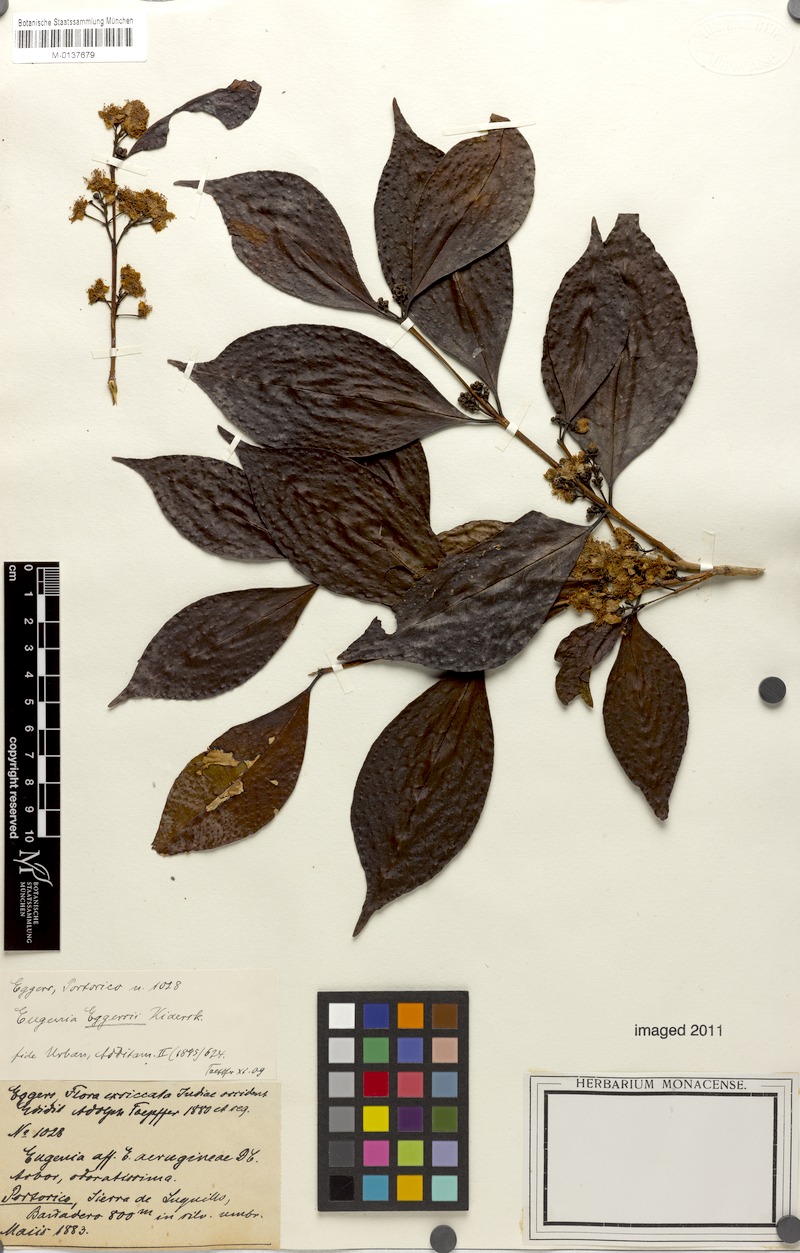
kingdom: Plantae
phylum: Tracheophyta
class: Magnoliopsida
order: Myrtales
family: Myrtaceae
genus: Eugenia
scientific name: Eugenia eggersii
